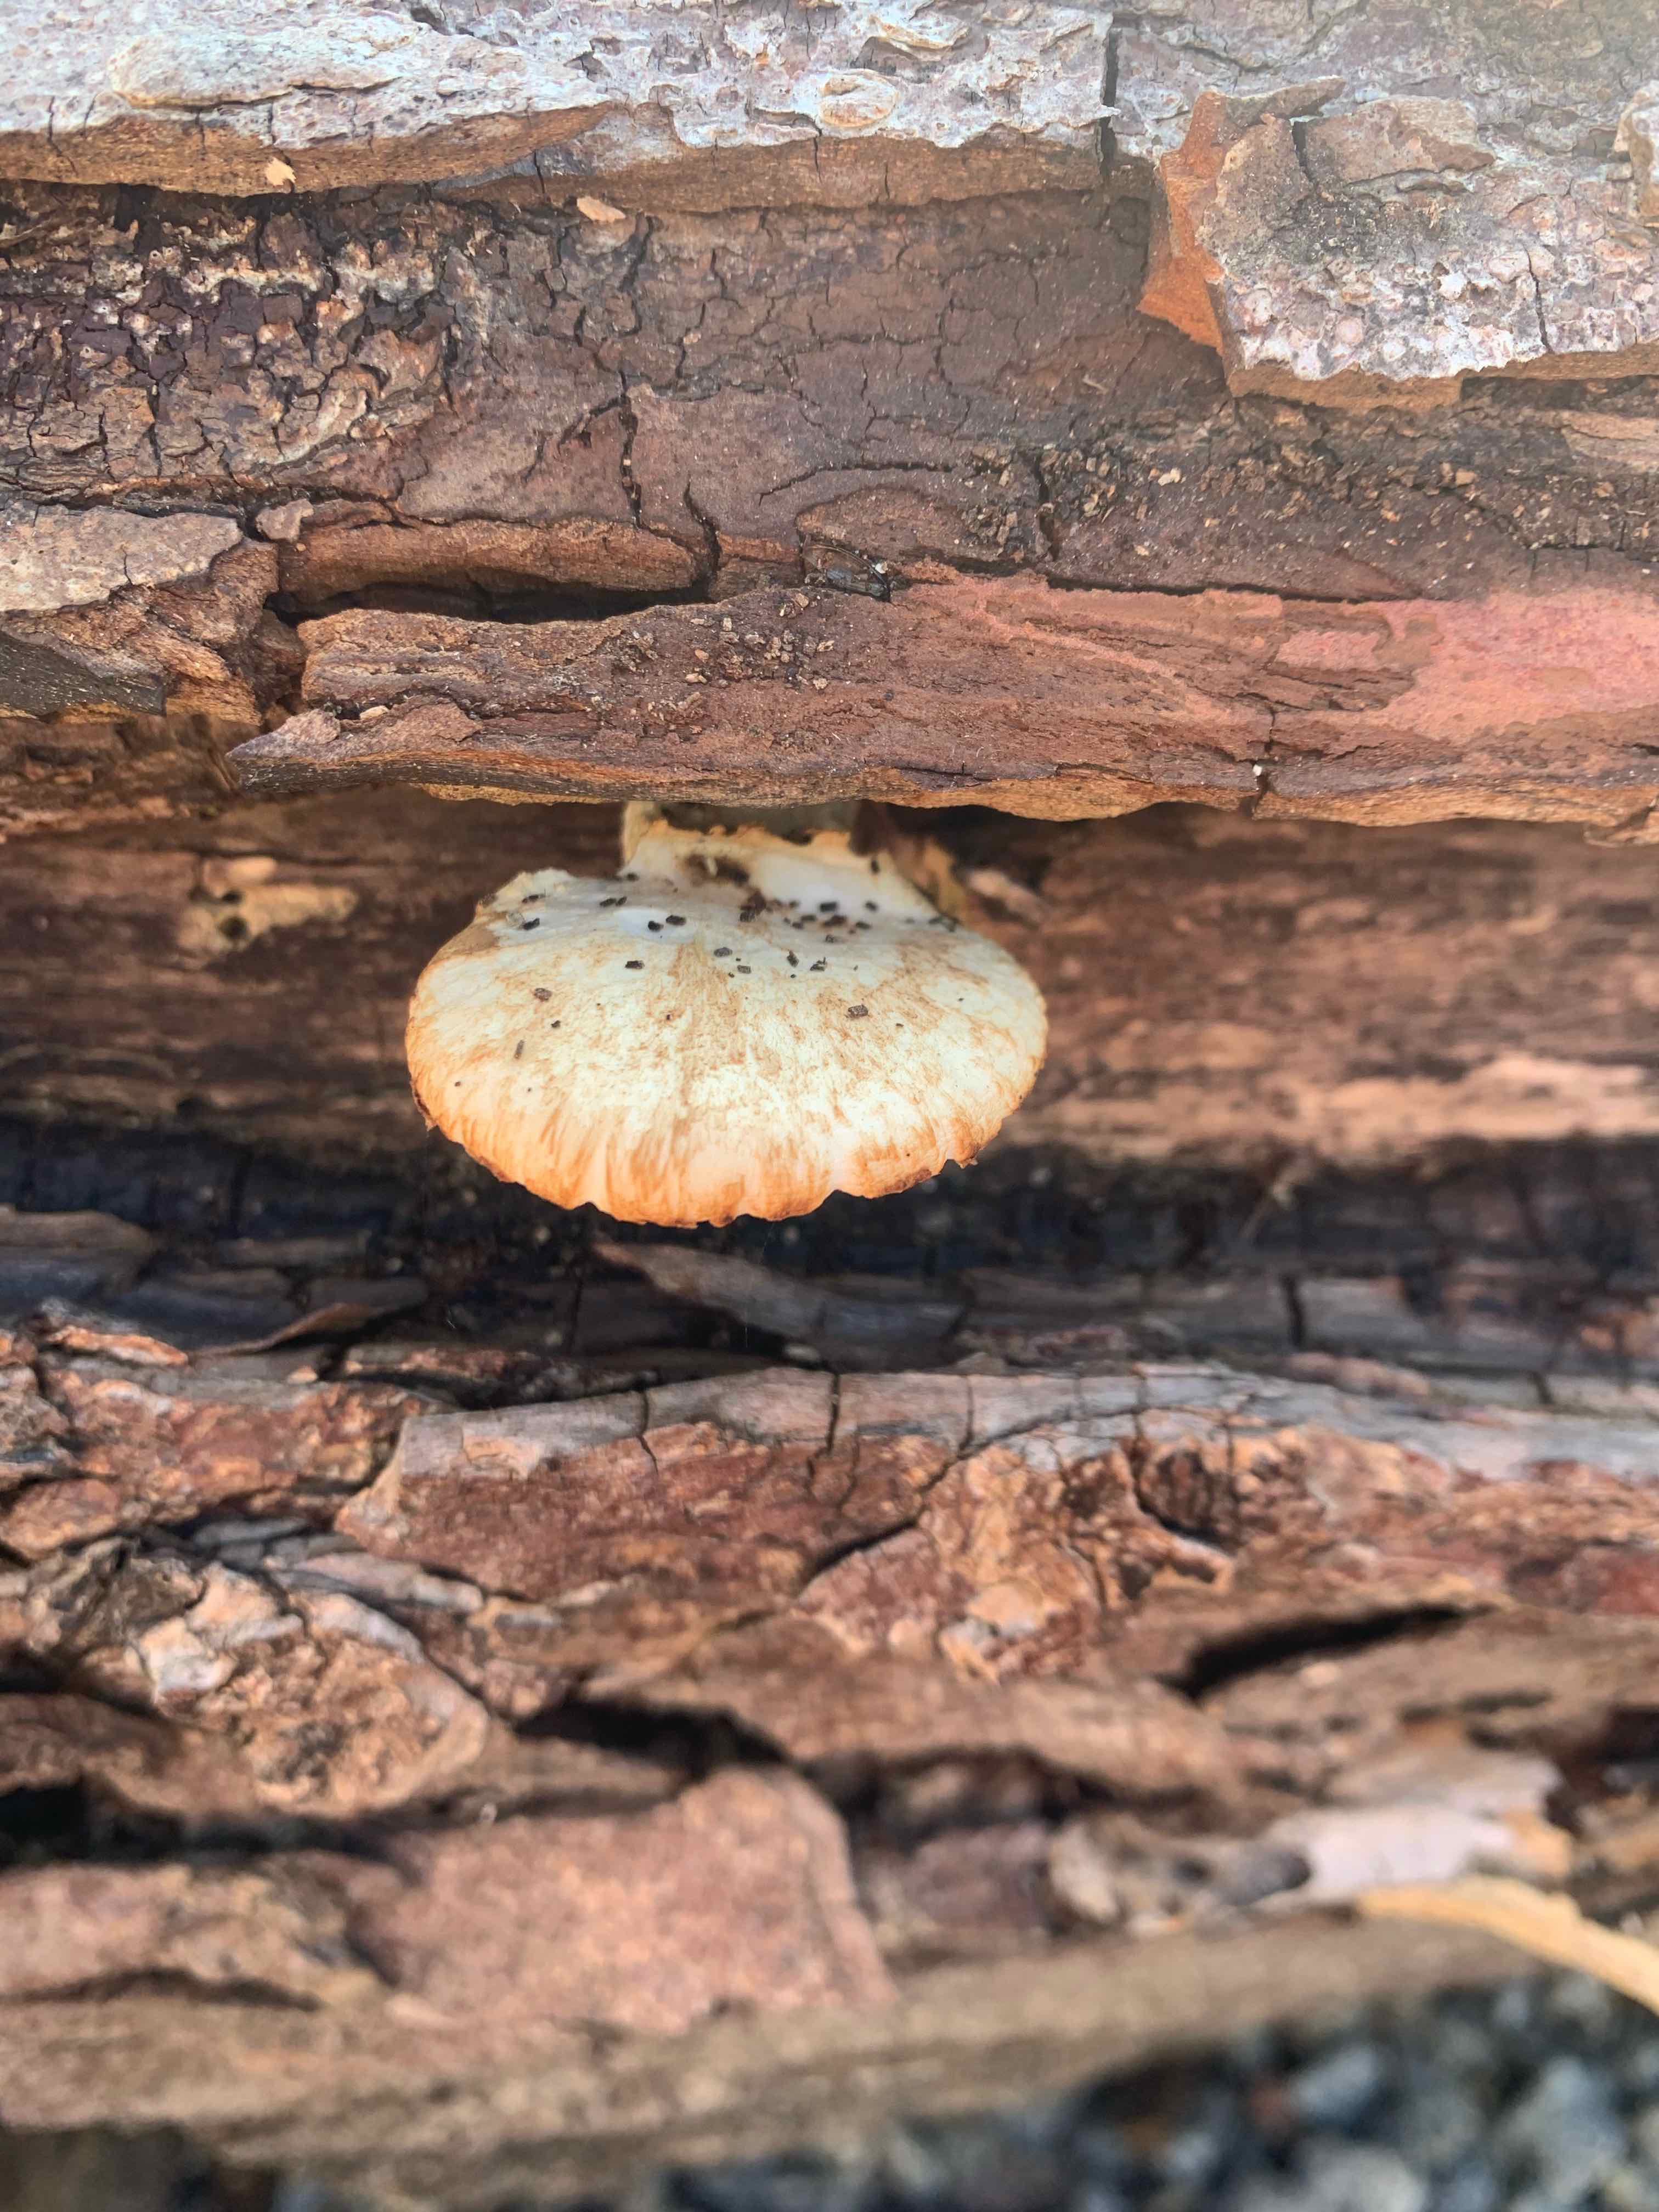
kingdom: Fungi
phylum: Basidiomycota
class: Agaricomycetes
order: Polyporales
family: Polyporaceae
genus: Polyporus
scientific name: Polyporus tuberaster
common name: knoldet stilkporesvamp
